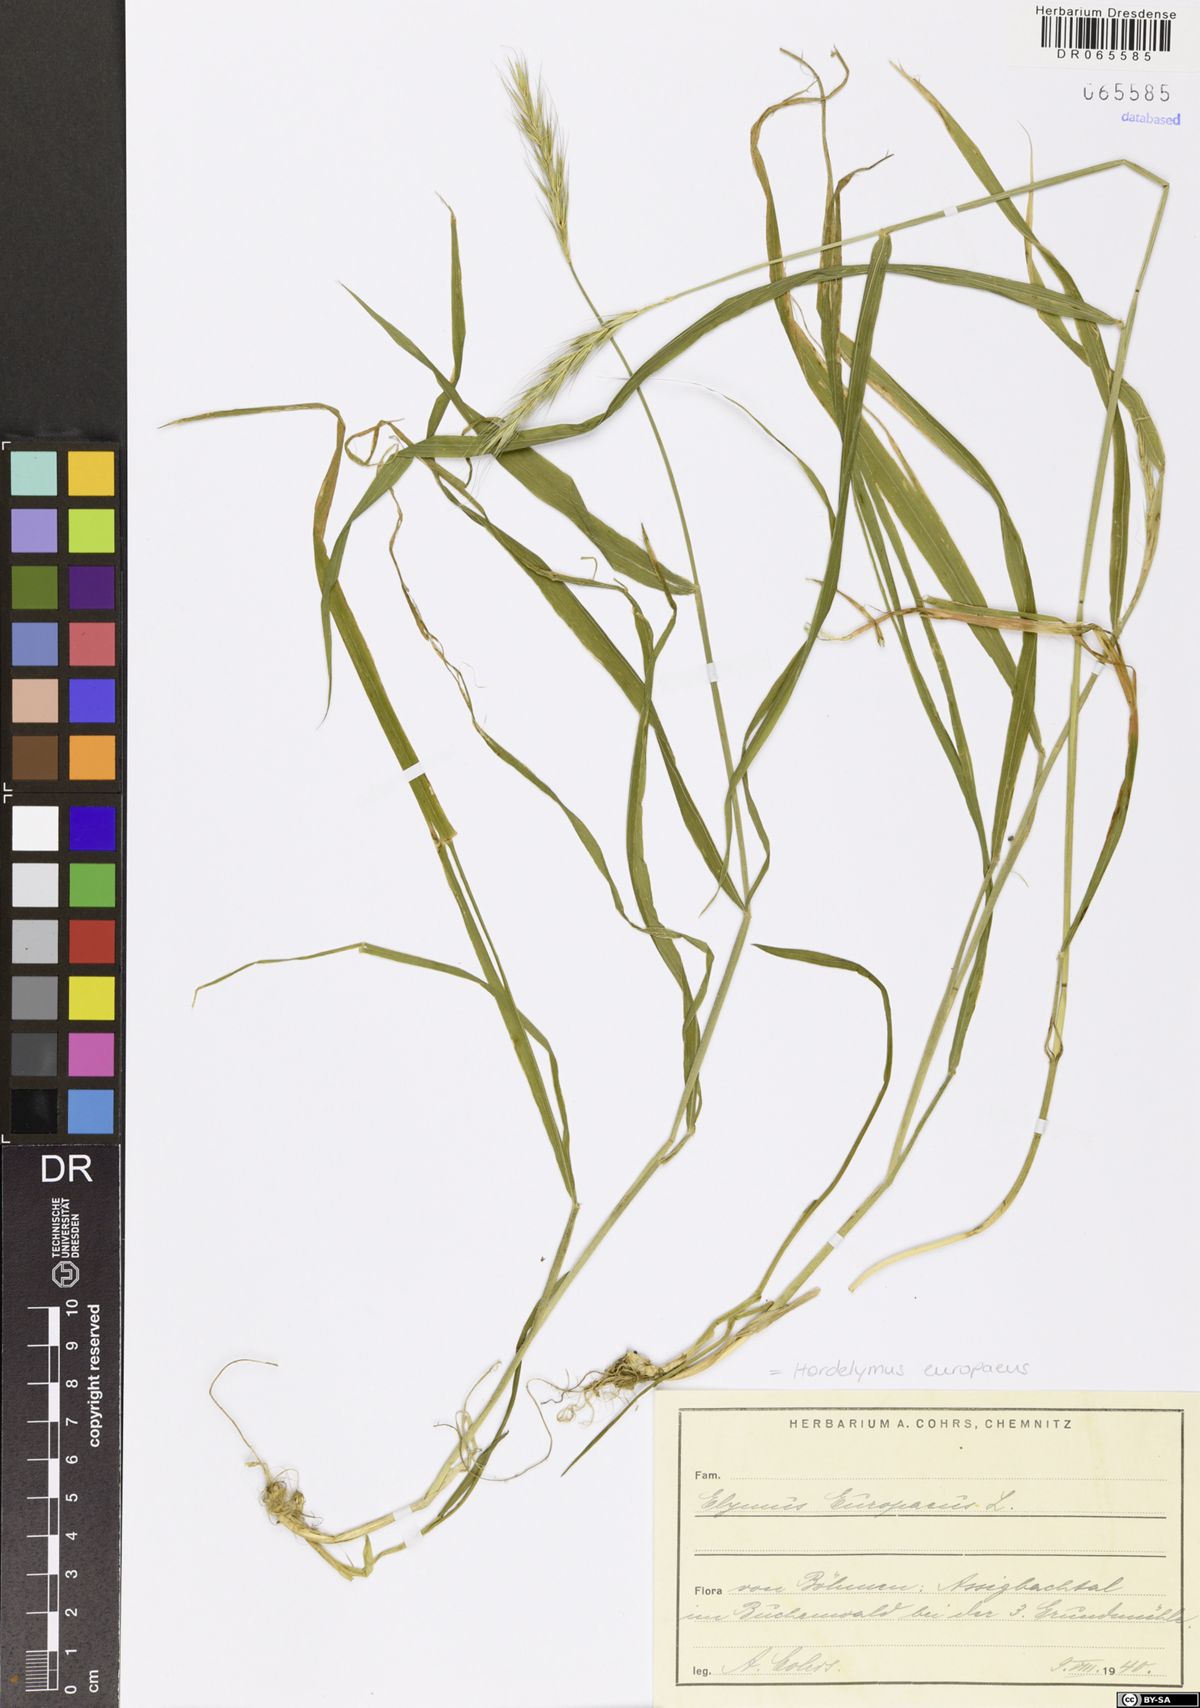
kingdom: Plantae
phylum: Tracheophyta
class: Liliopsida
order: Poales
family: Poaceae
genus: Hordelymus
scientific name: Hordelymus europaeus
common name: Wood-barley
